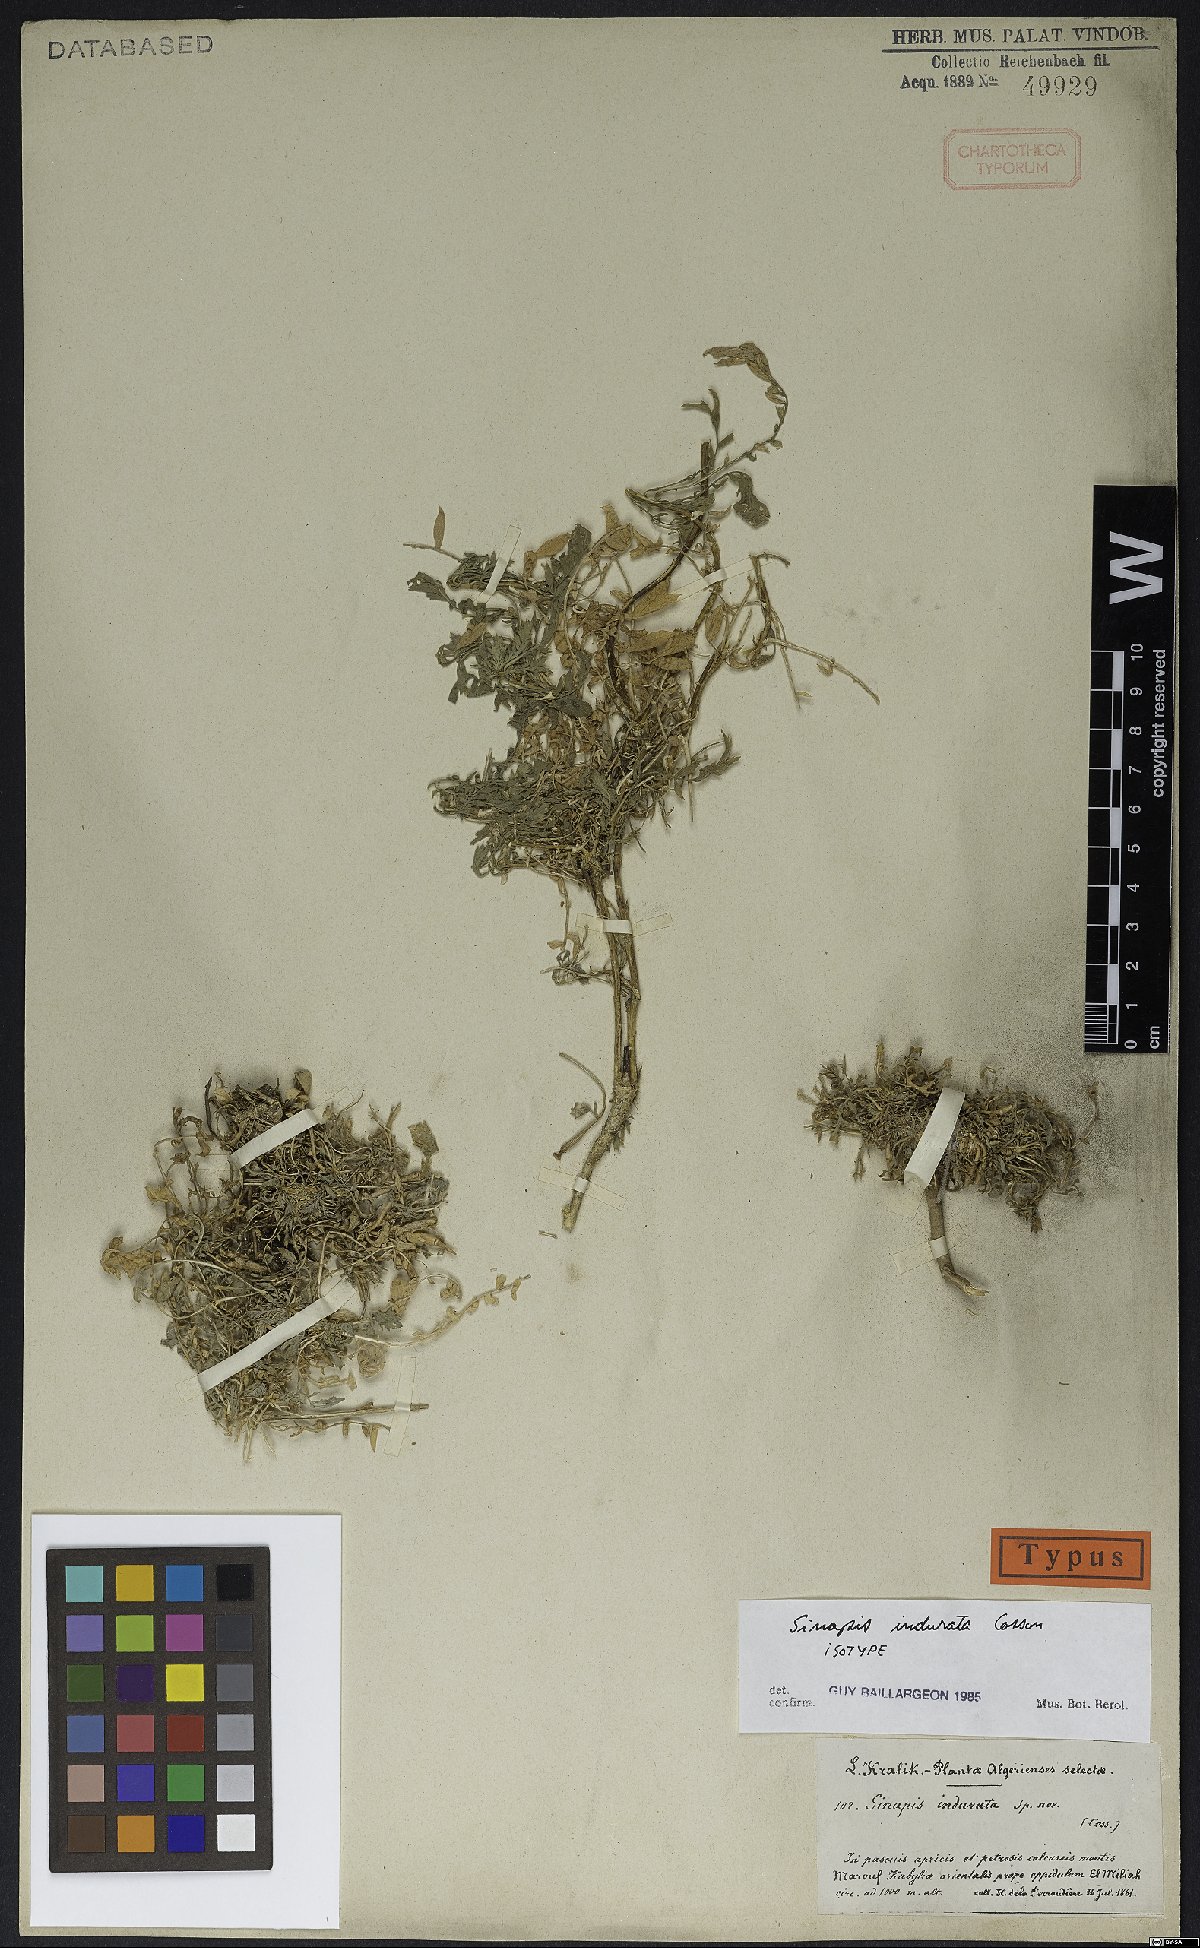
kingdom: Plantae
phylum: Tracheophyta
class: Magnoliopsida
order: Brassicales
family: Brassicaceae
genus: Sinapis
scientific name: Sinapis pubescens
